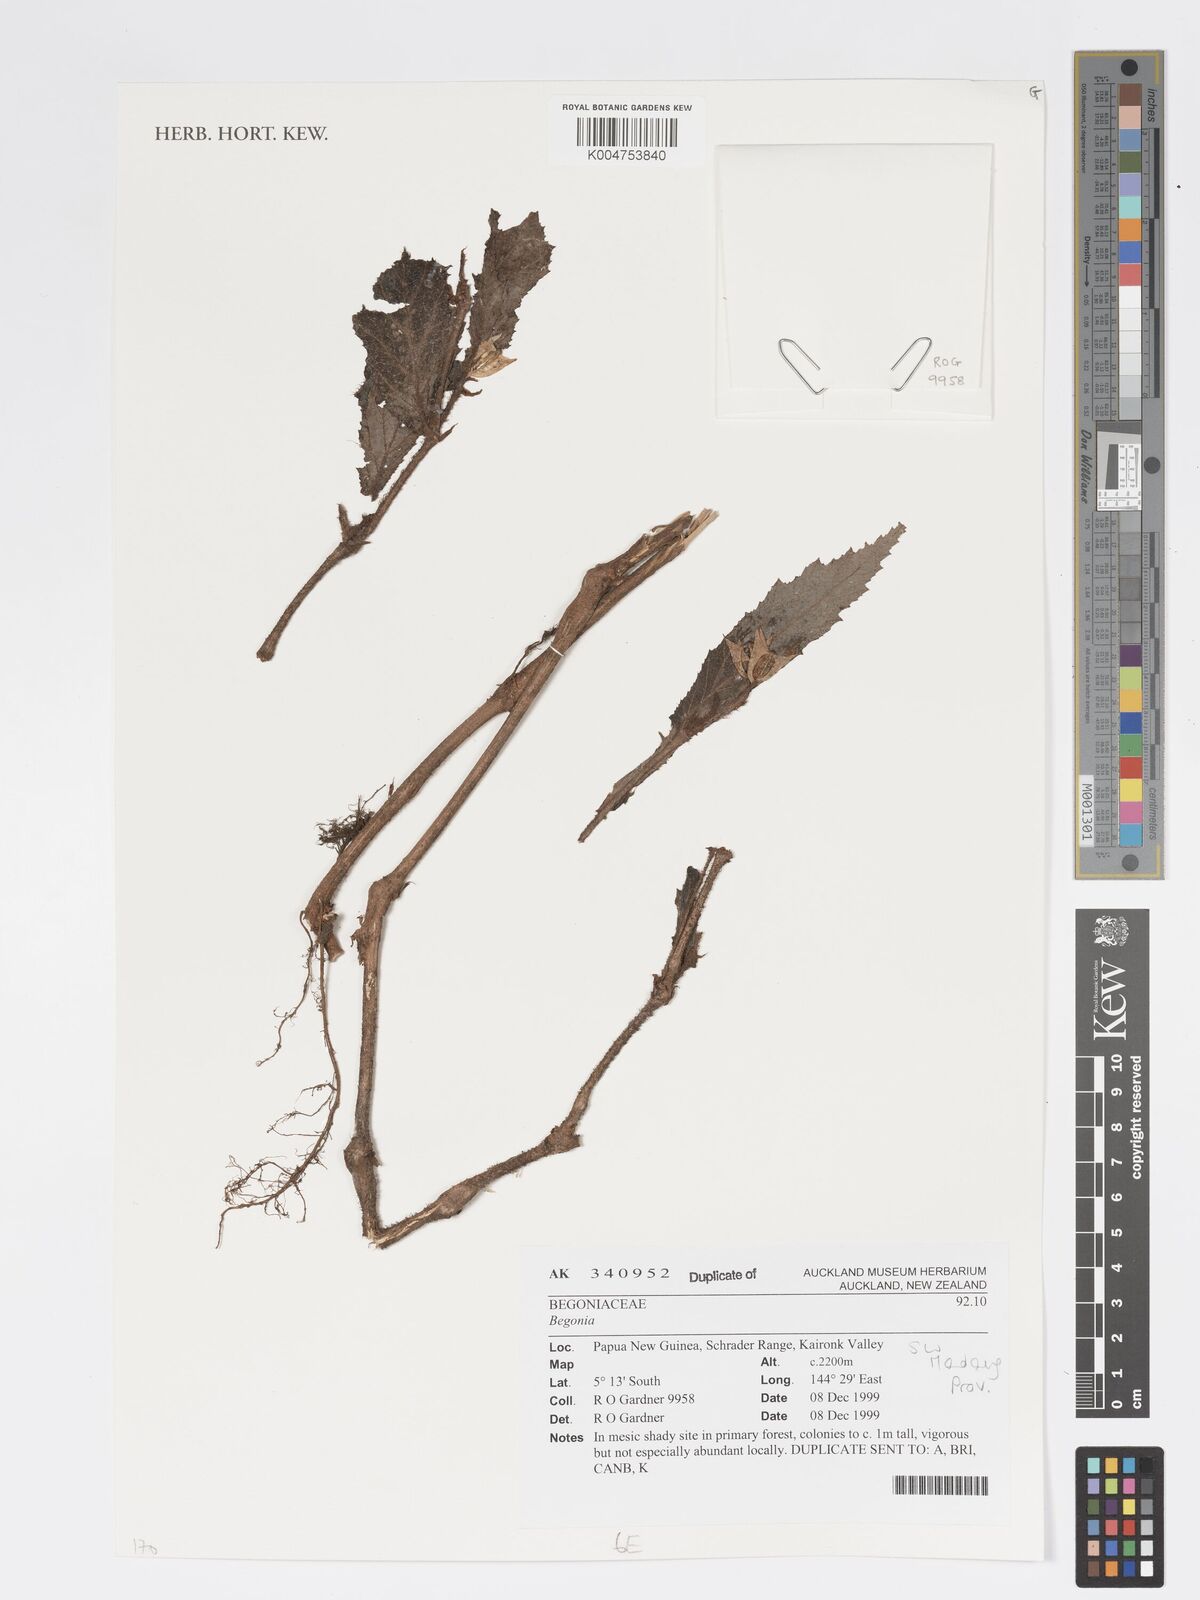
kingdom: Plantae
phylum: Tracheophyta
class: Magnoliopsida
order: Cucurbitales
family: Begoniaceae
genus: Begonia
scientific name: Begonia
